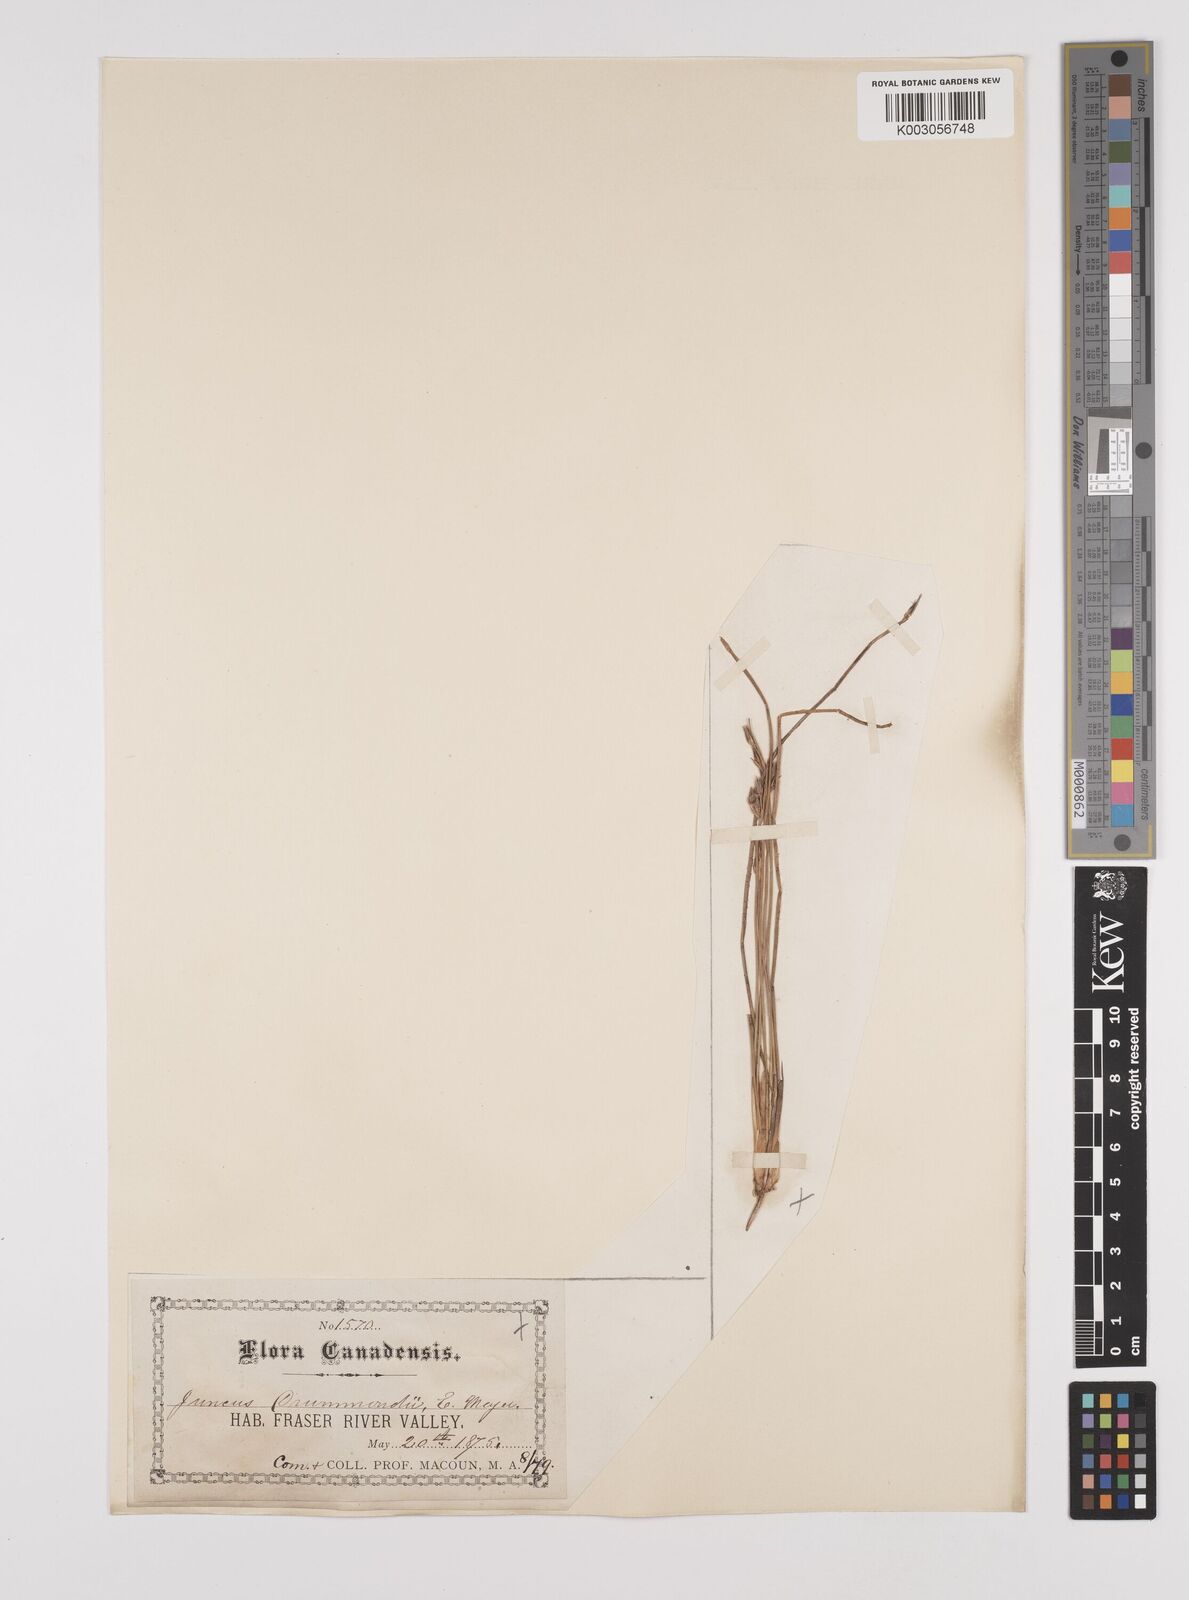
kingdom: Plantae
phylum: Tracheophyta
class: Liliopsida
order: Poales
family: Juncaceae
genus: Juncus
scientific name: Juncus drummondii
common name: Drummond's rush
